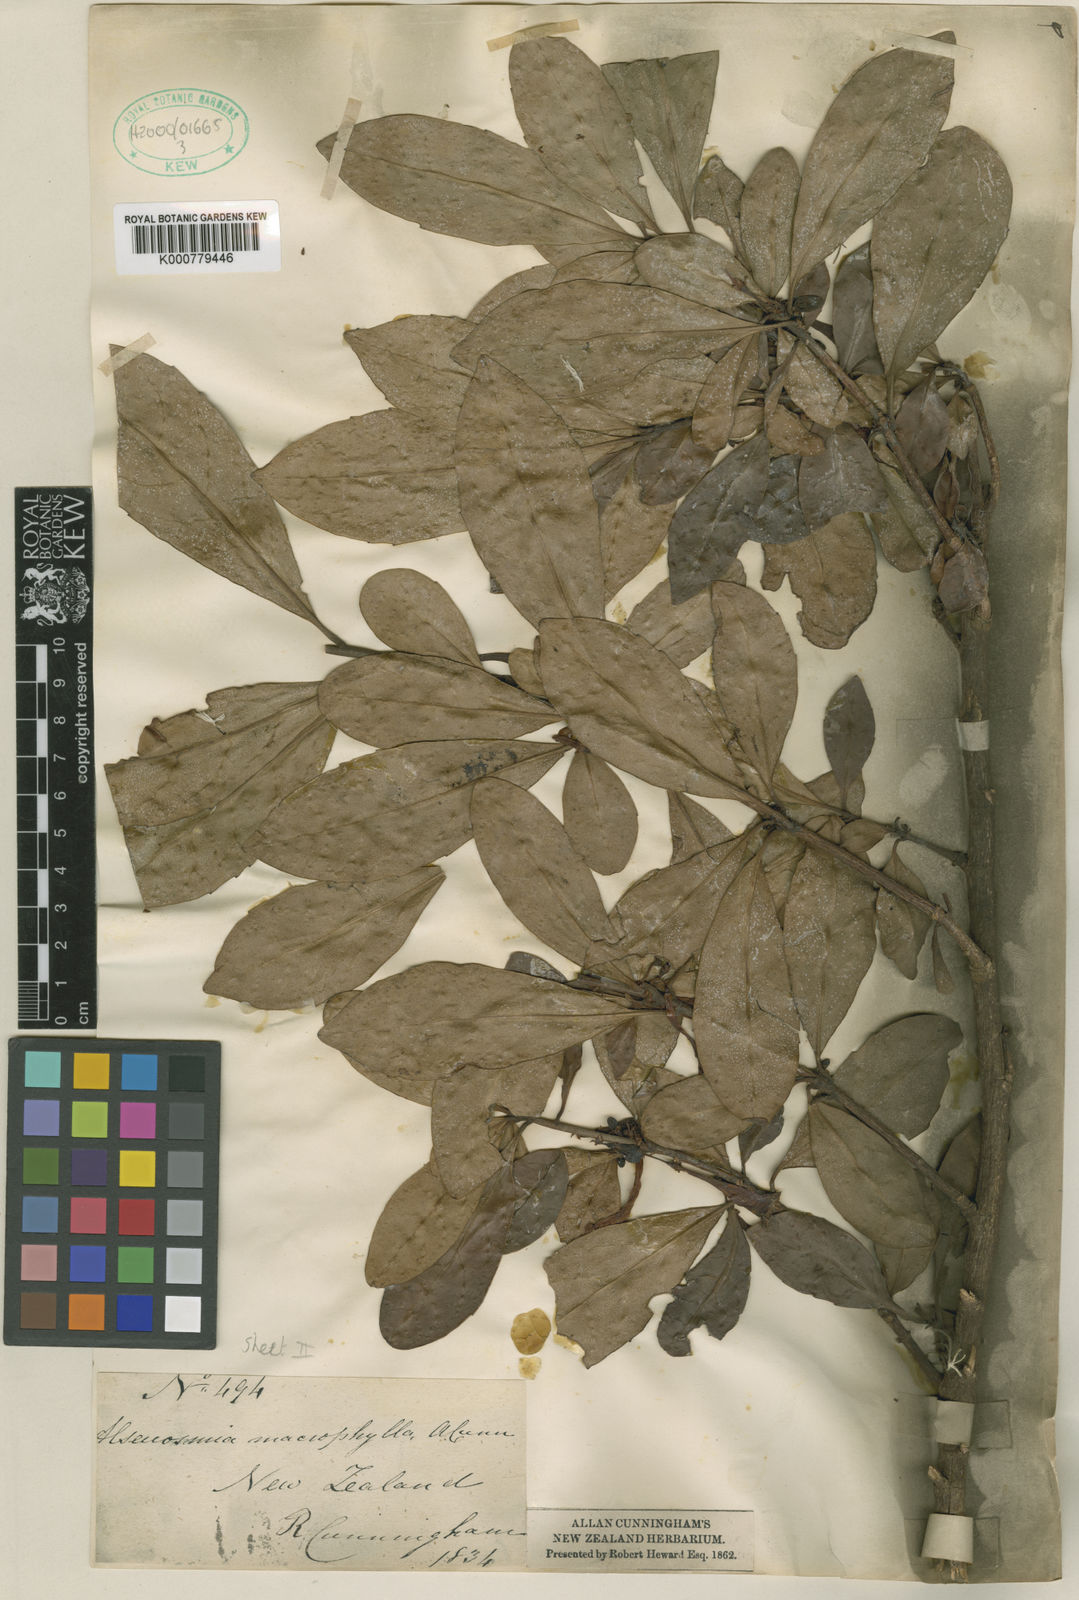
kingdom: Plantae
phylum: Tracheophyta
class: Magnoliopsida
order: Asterales
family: Alseuosmiaceae
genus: Alseuosmia
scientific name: Alseuosmia macrophylla
